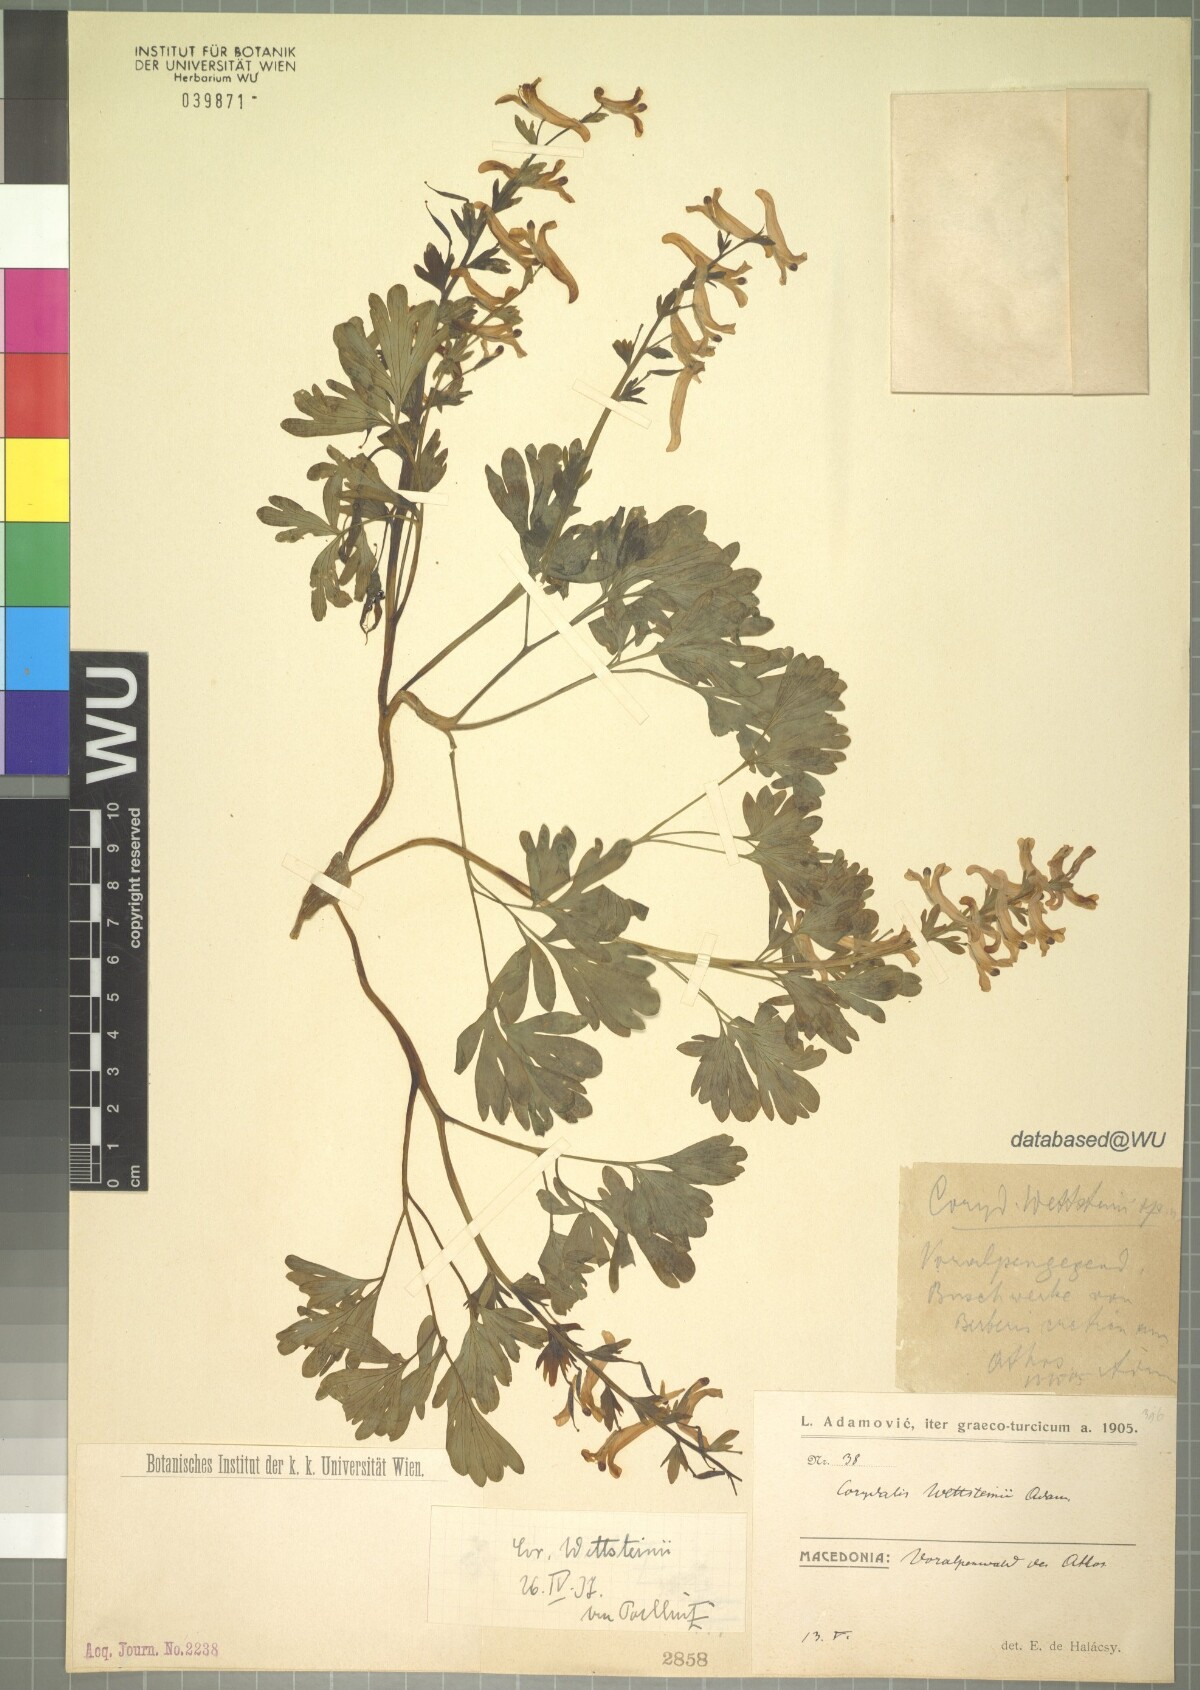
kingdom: Plantae
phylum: Tracheophyta
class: Magnoliopsida
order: Ranunculales
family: Papaveraceae
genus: Corydalis
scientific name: Corydalis integra
